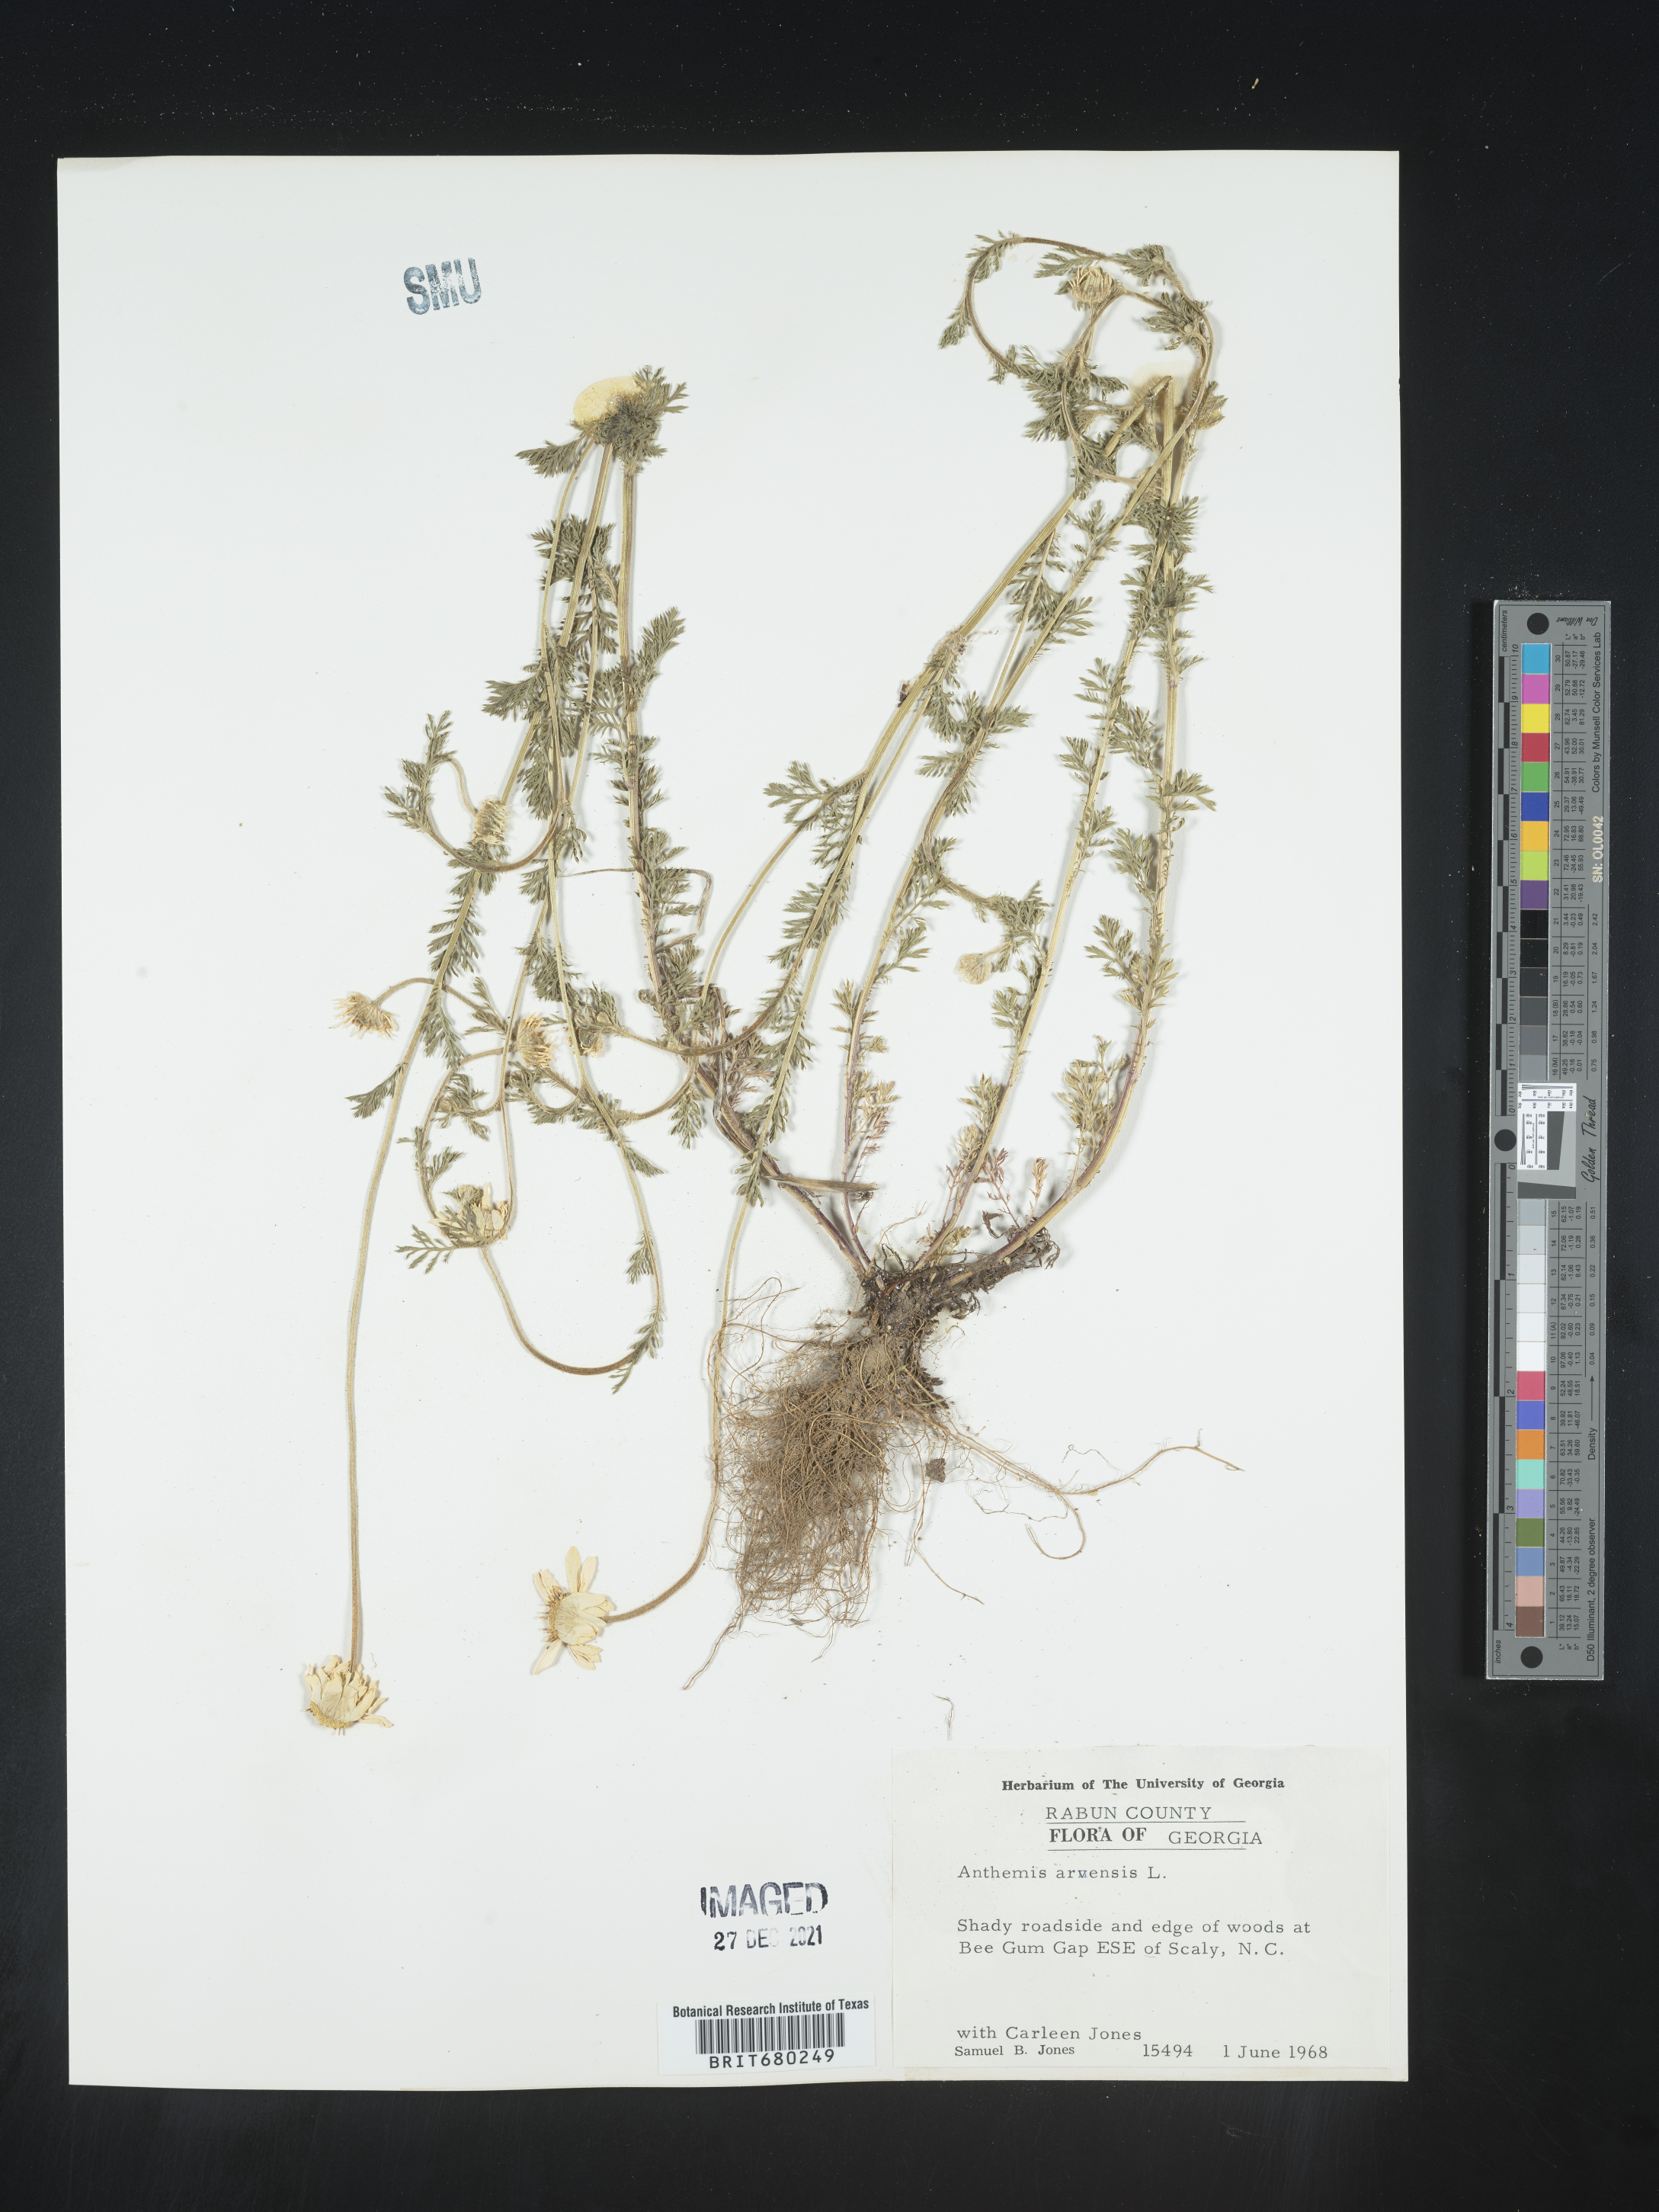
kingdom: Plantae
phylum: Tracheophyta
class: Magnoliopsida
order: Asterales
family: Asteraceae
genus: Anthemis
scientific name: Anthemis arvensis
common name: Corn chamomile
